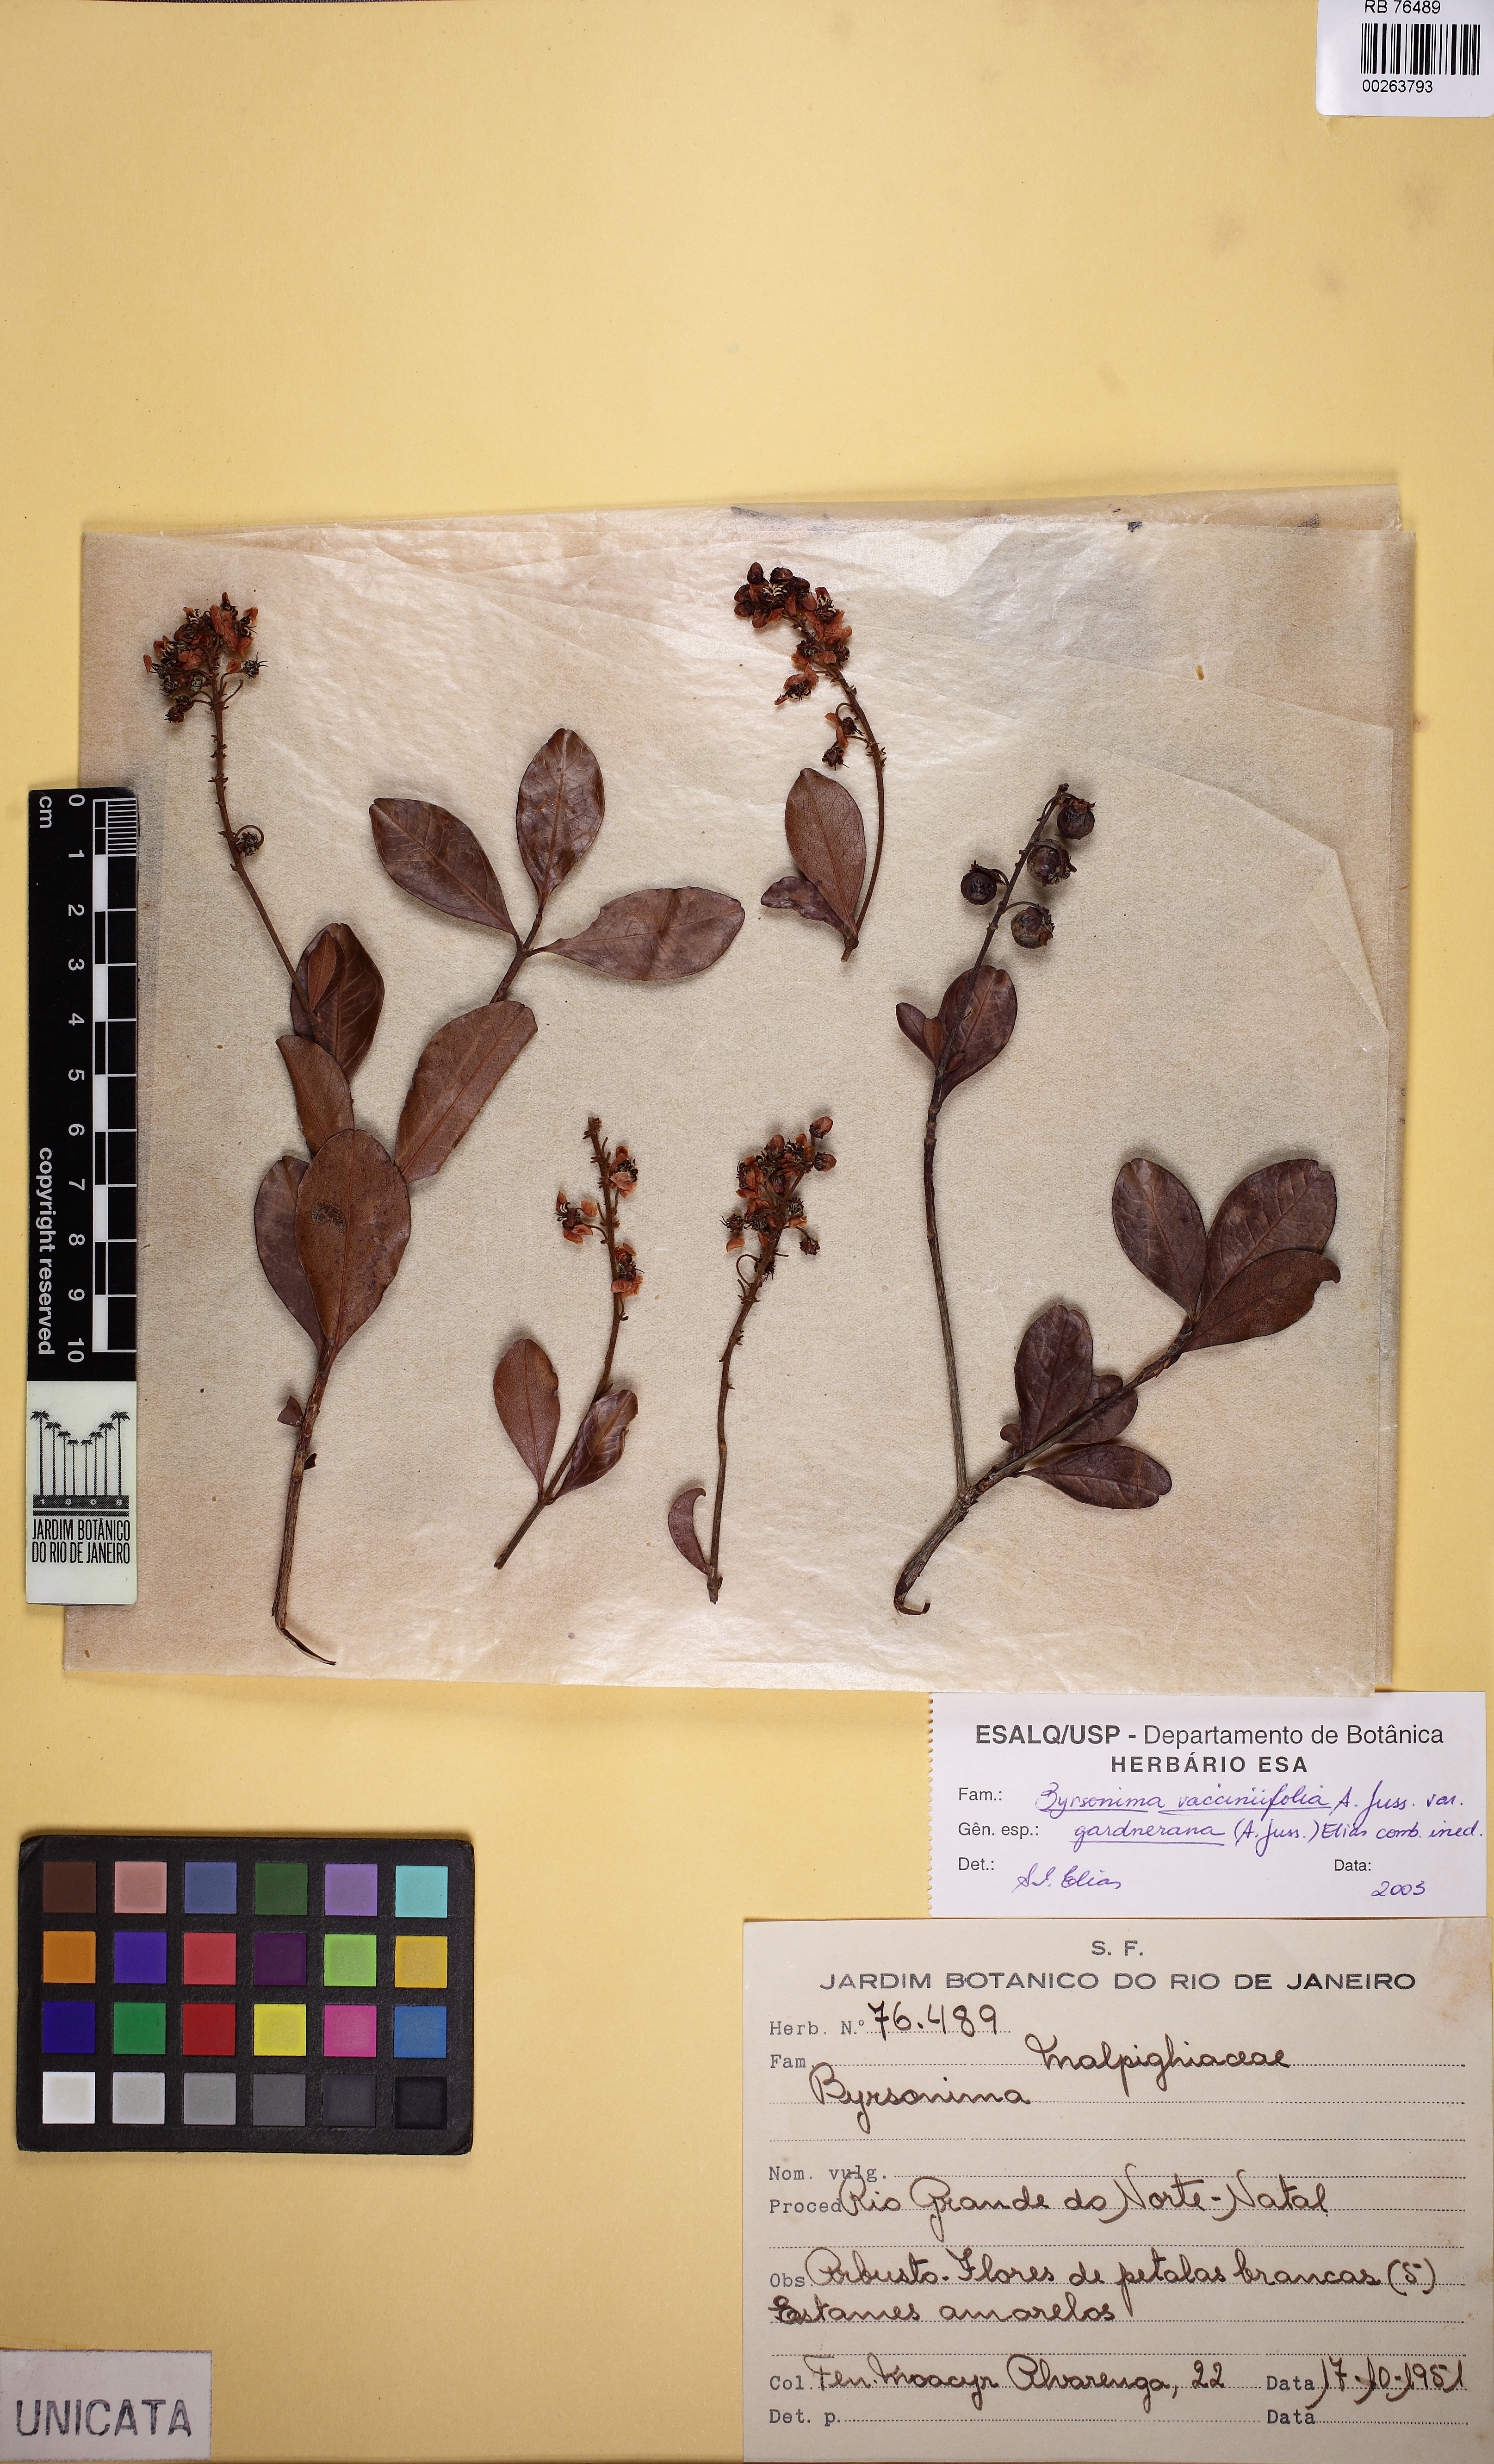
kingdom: Plantae
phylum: Tracheophyta
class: Magnoliopsida
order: Malpighiales
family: Malpighiaceae
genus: Byrsonima
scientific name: Byrsonima vacciniifolia
